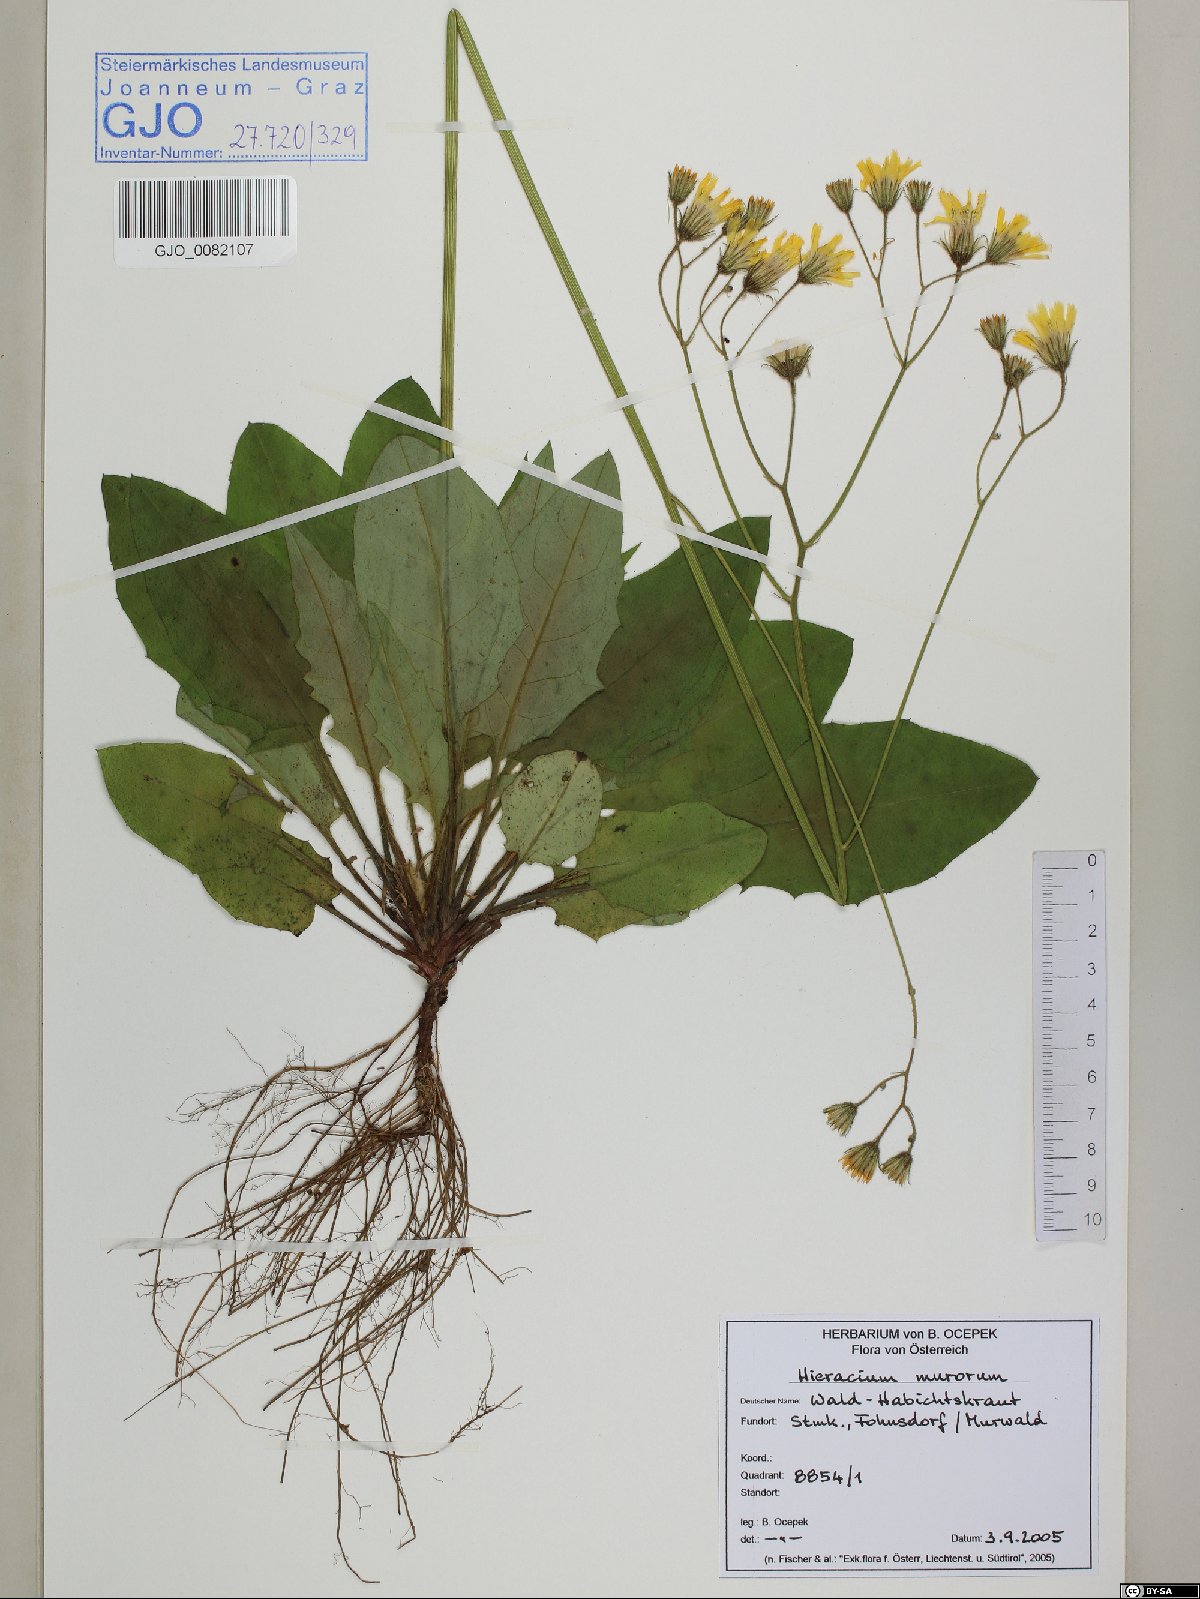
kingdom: Plantae
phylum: Tracheophyta
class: Magnoliopsida
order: Asterales
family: Asteraceae
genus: Hieracium
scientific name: Hieracium murorum
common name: Wall hawkweed
